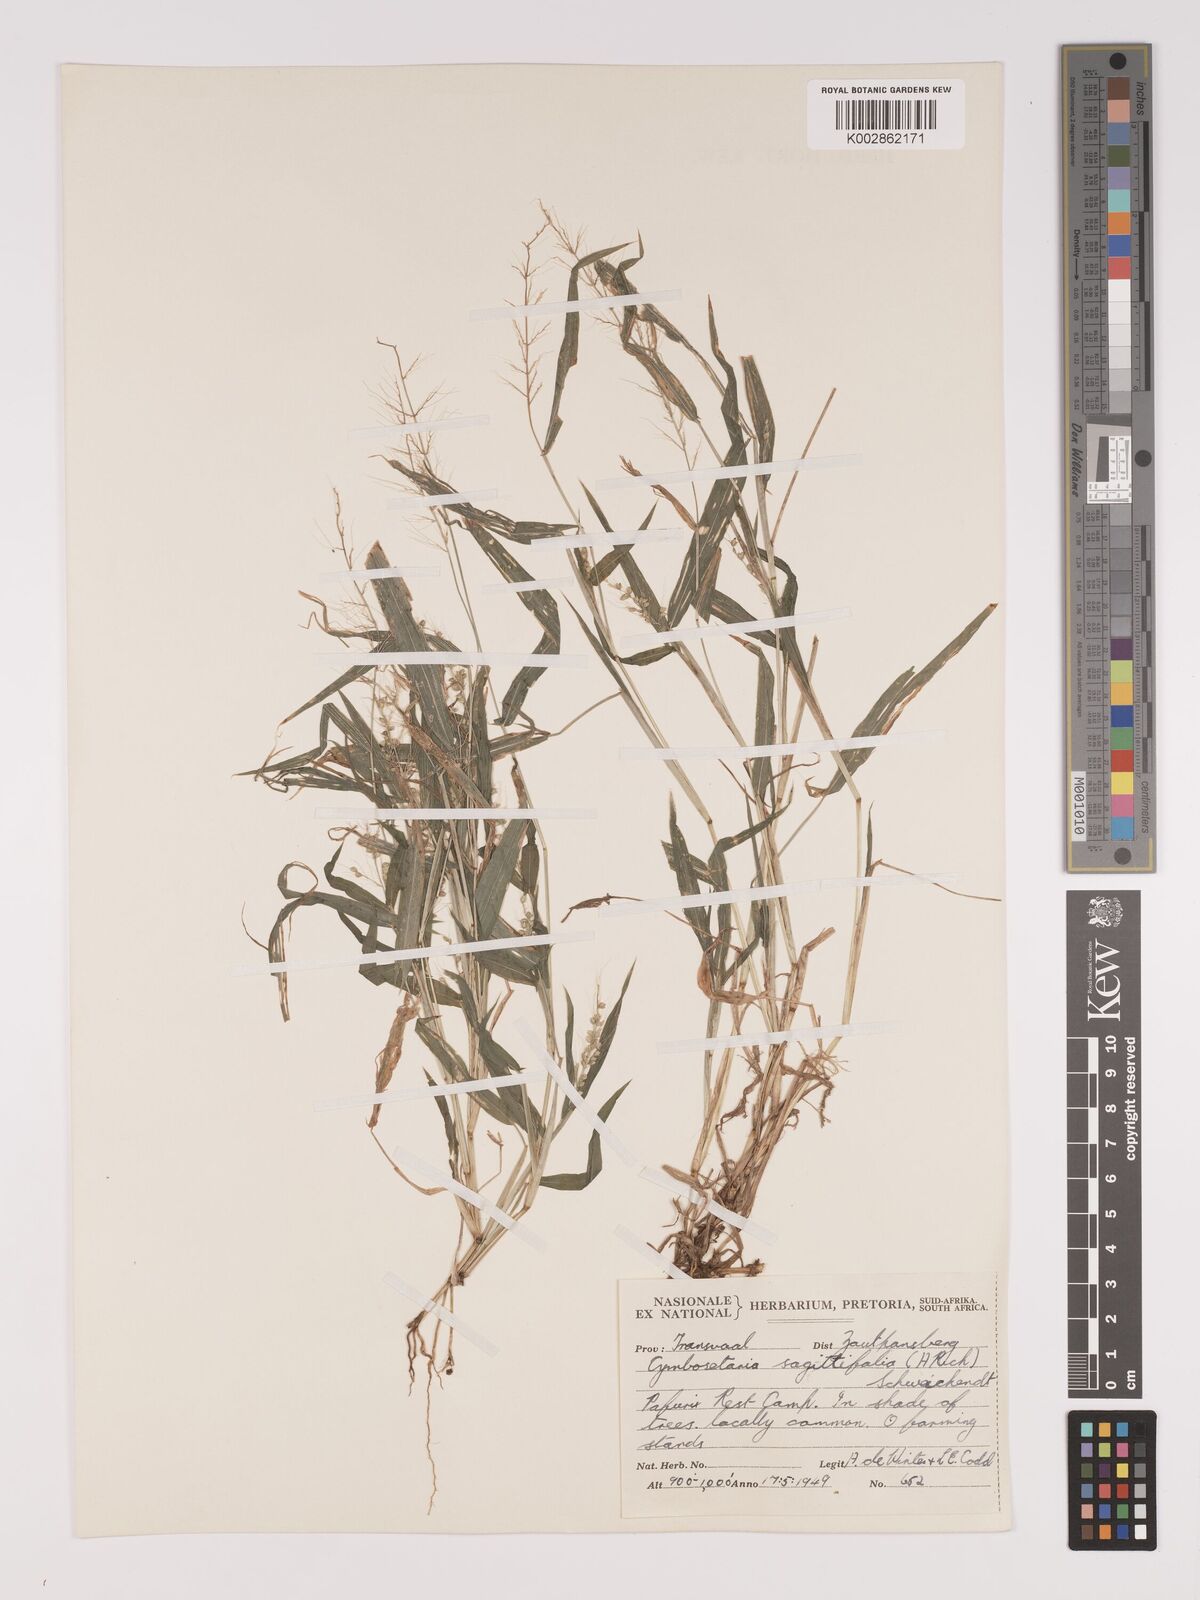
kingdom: Plantae
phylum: Tracheophyta
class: Liliopsida
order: Poales
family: Poaceae
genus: Setaria
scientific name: Setaria sagittifolia
